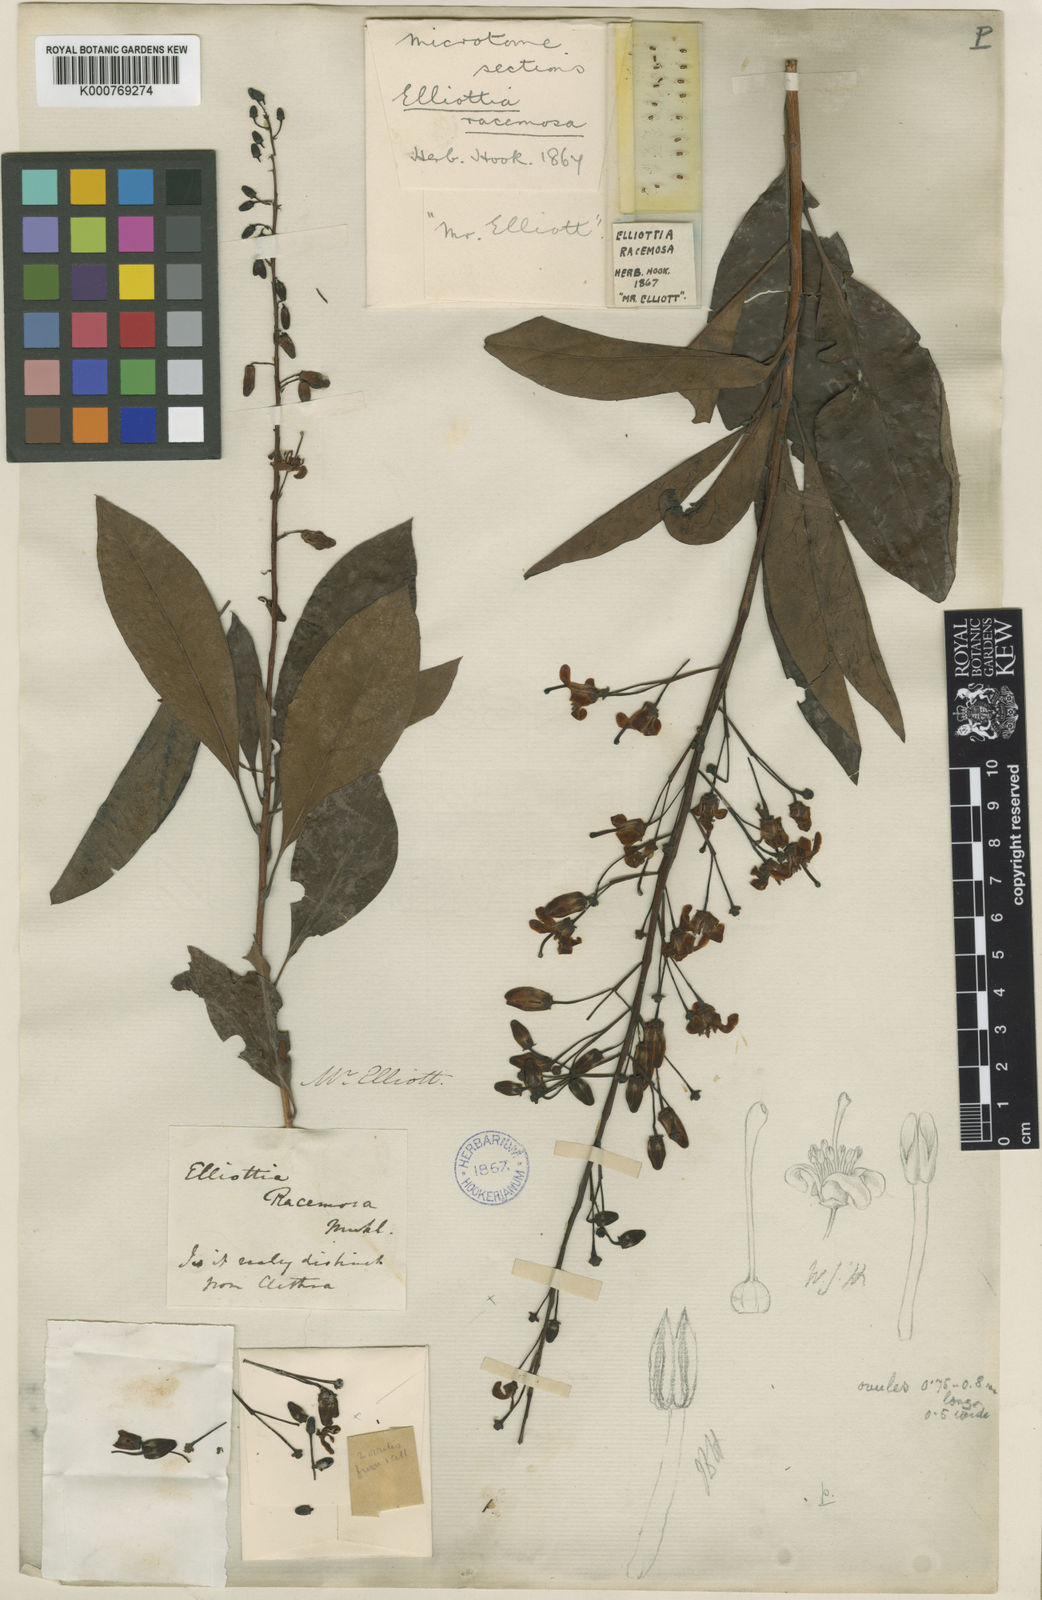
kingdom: Plantae
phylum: Tracheophyta
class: Magnoliopsida
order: Ericales
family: Ericaceae
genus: Elliottia
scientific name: Elliottia racemosa
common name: Georgia plume
